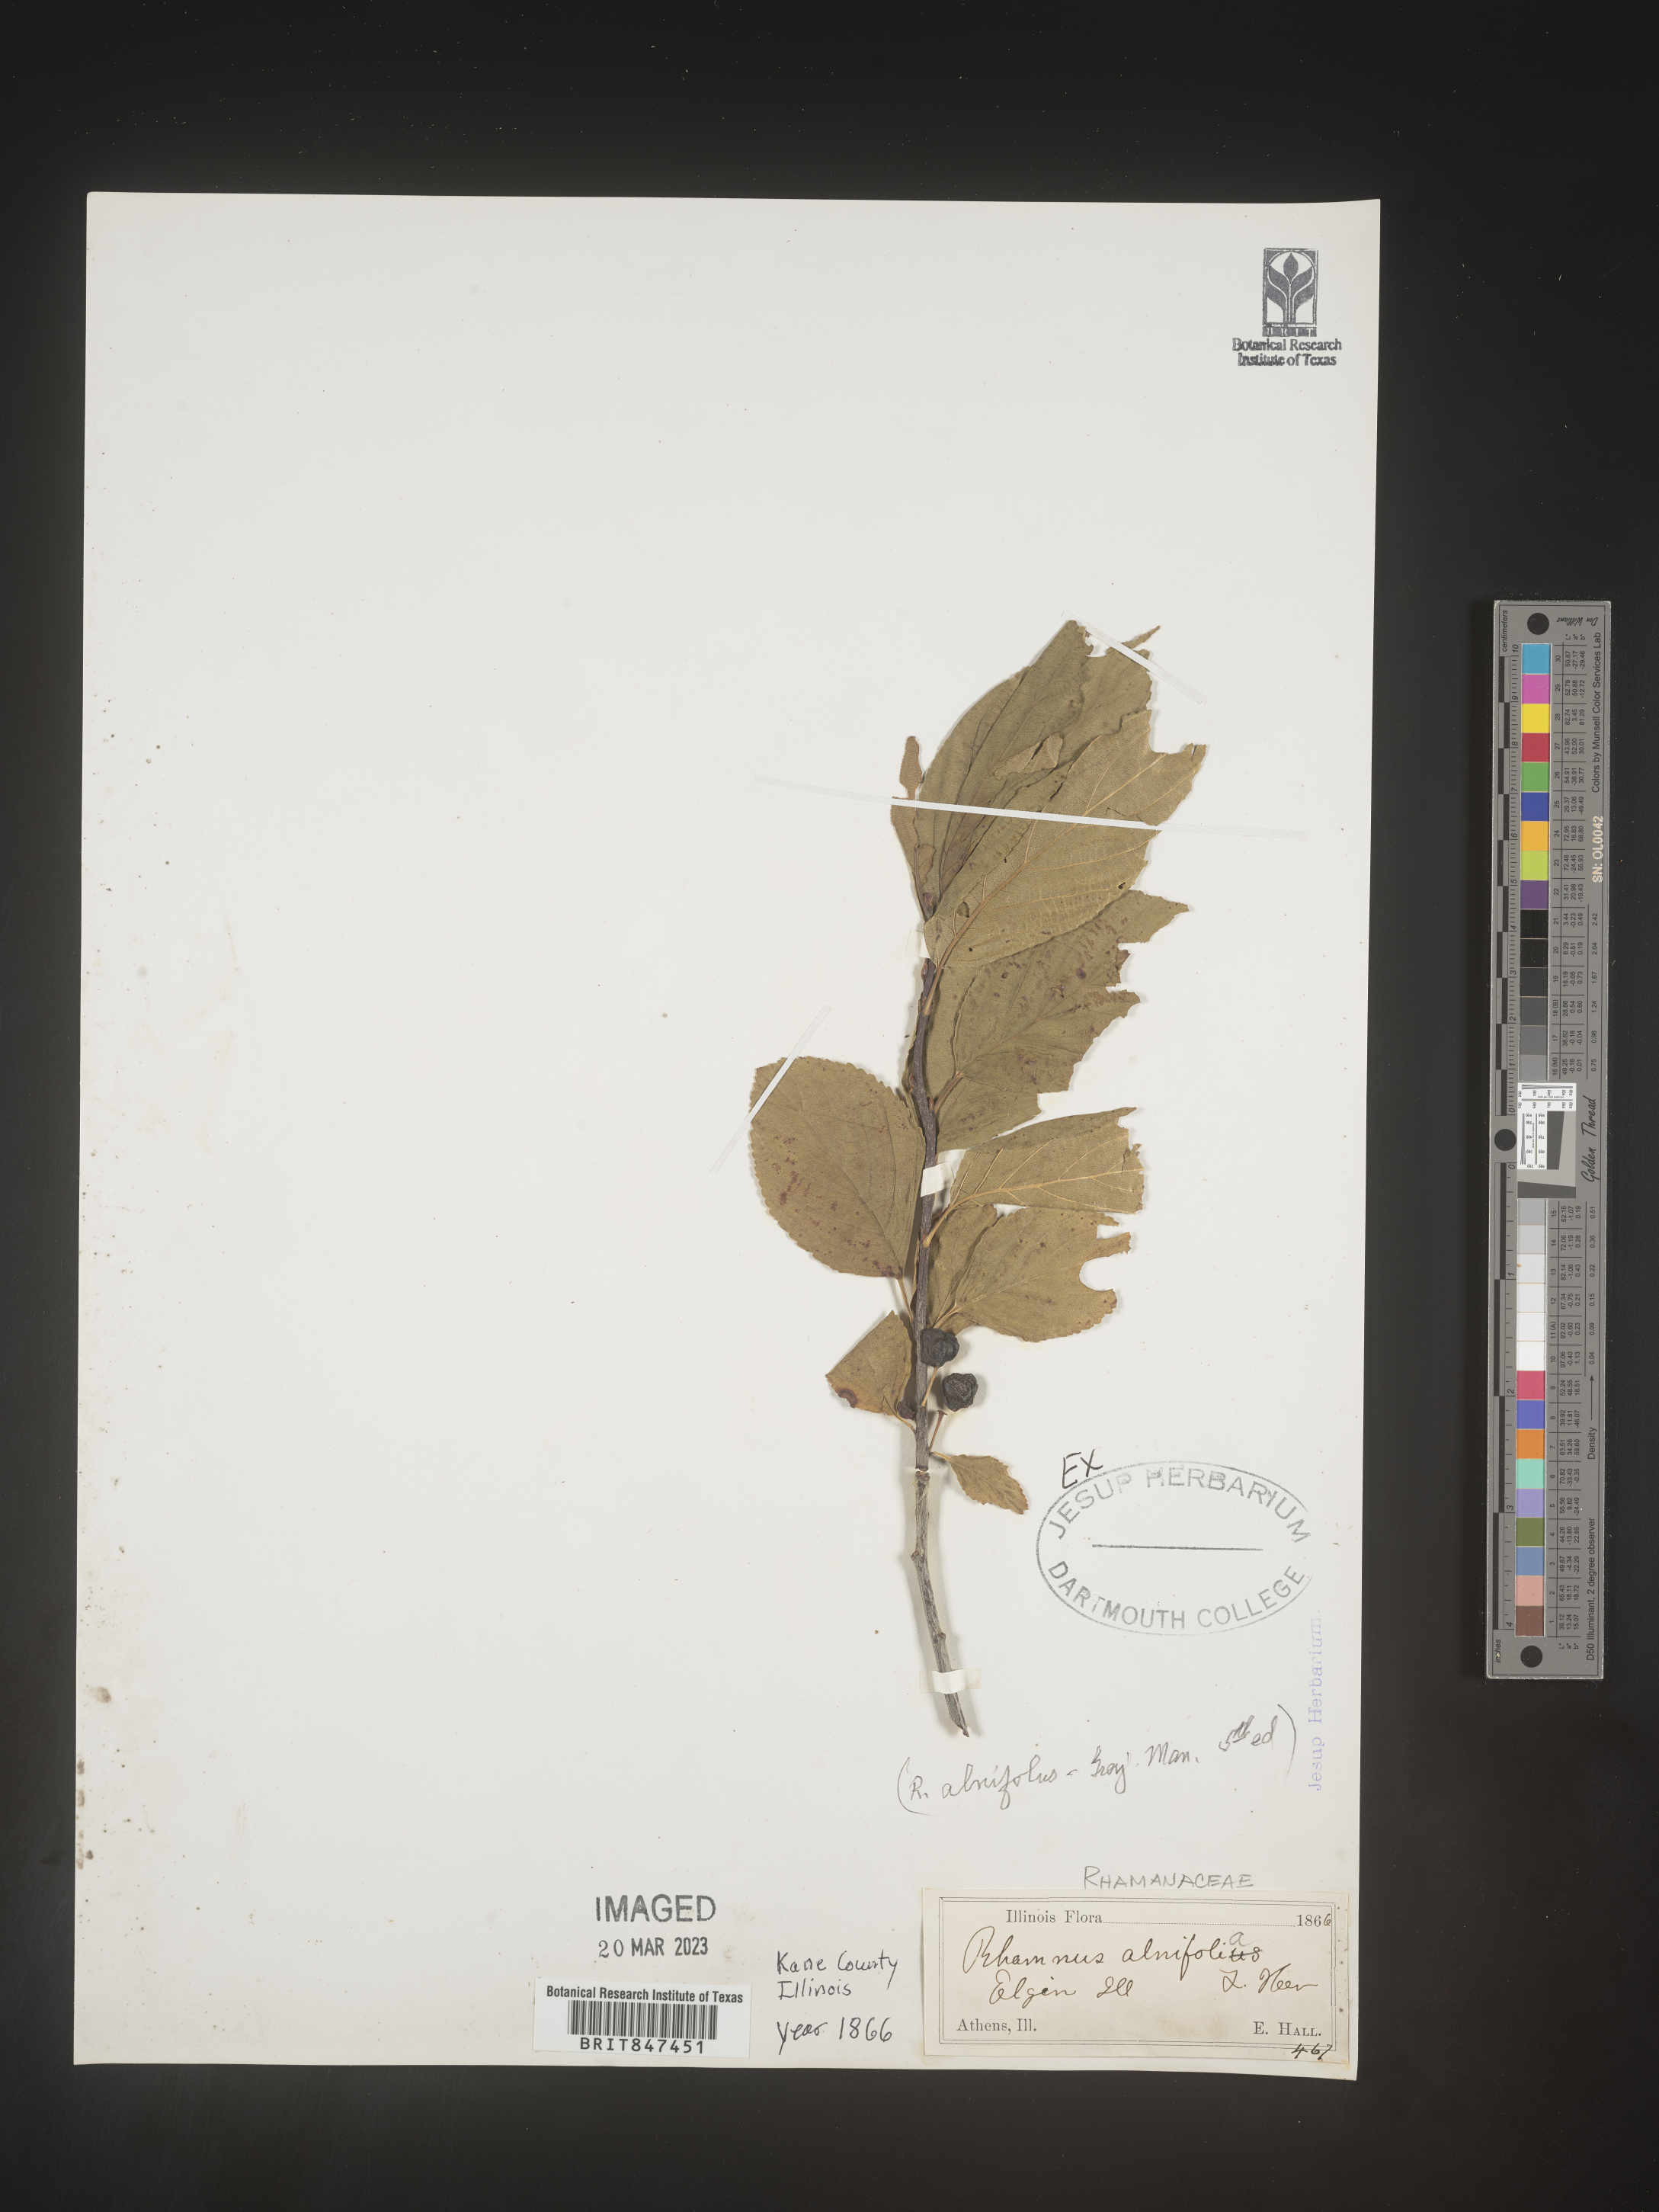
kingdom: Plantae
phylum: Tracheophyta
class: Magnoliopsida
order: Rosales
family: Rhamnaceae
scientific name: Rhamnaceae
